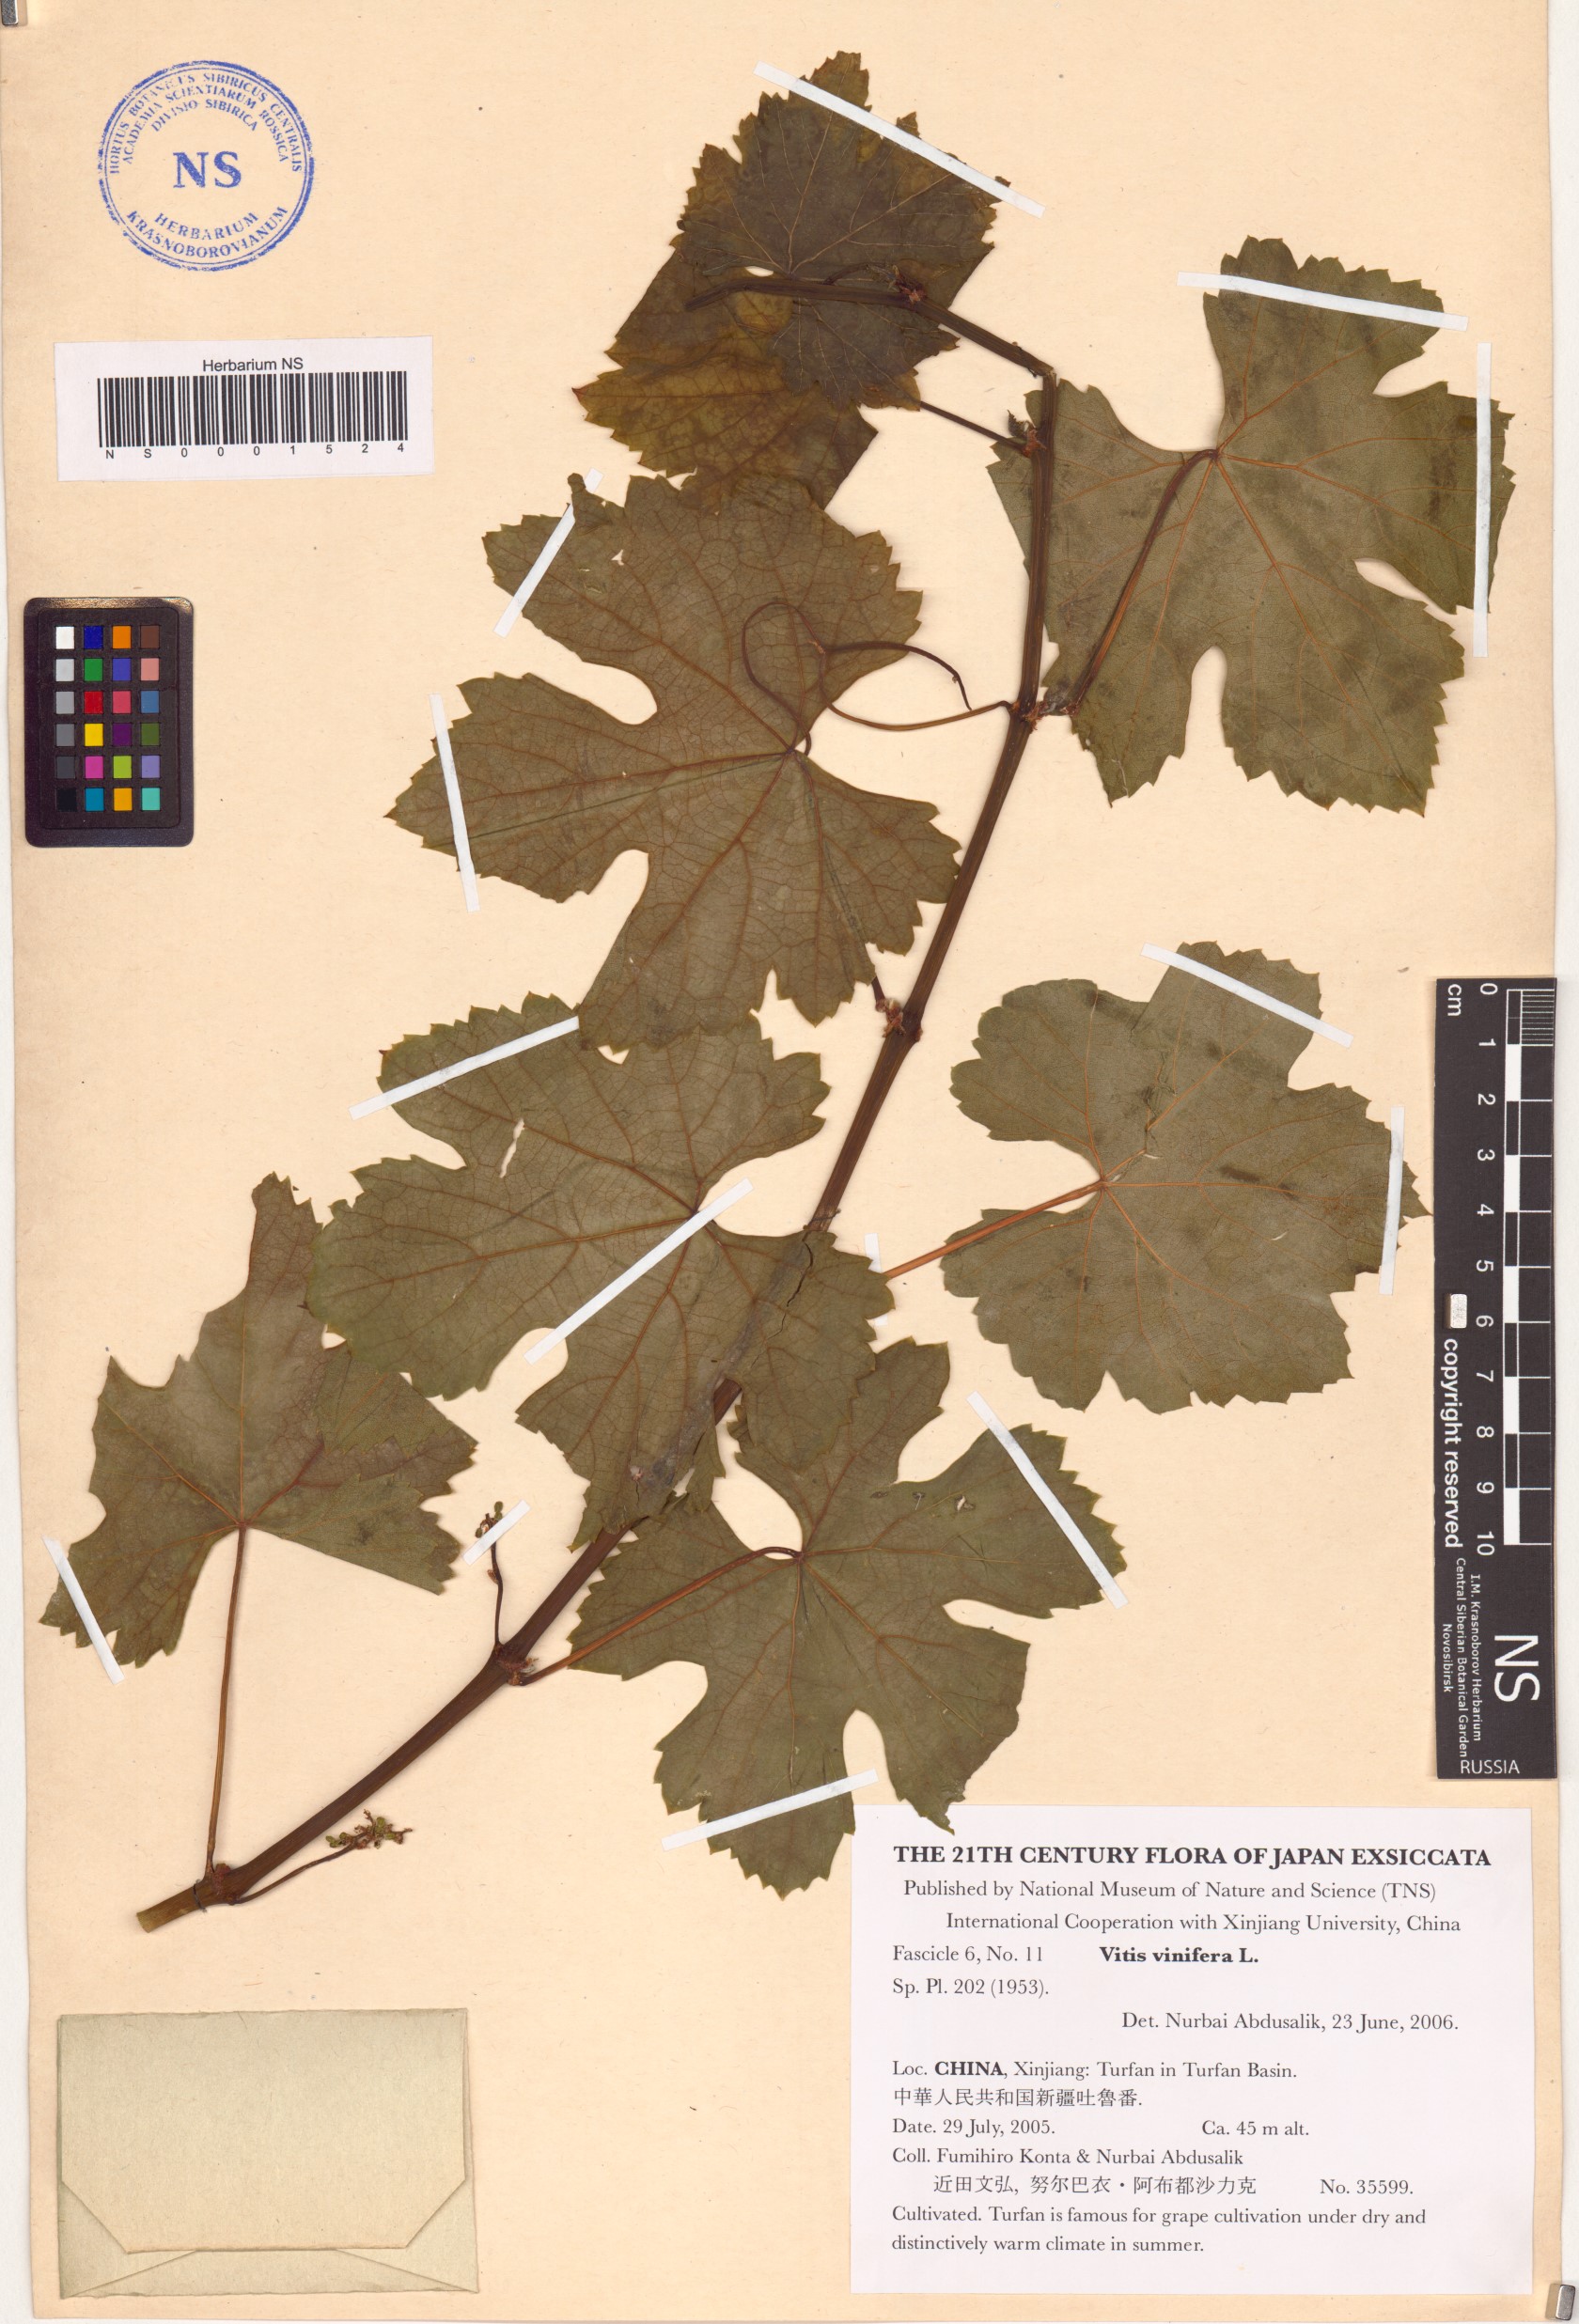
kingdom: Plantae
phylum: Tracheophyta
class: Magnoliopsida
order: Vitales
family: Vitaceae
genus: Vitis
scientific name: Vitis vinifera
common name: Grape-vine
